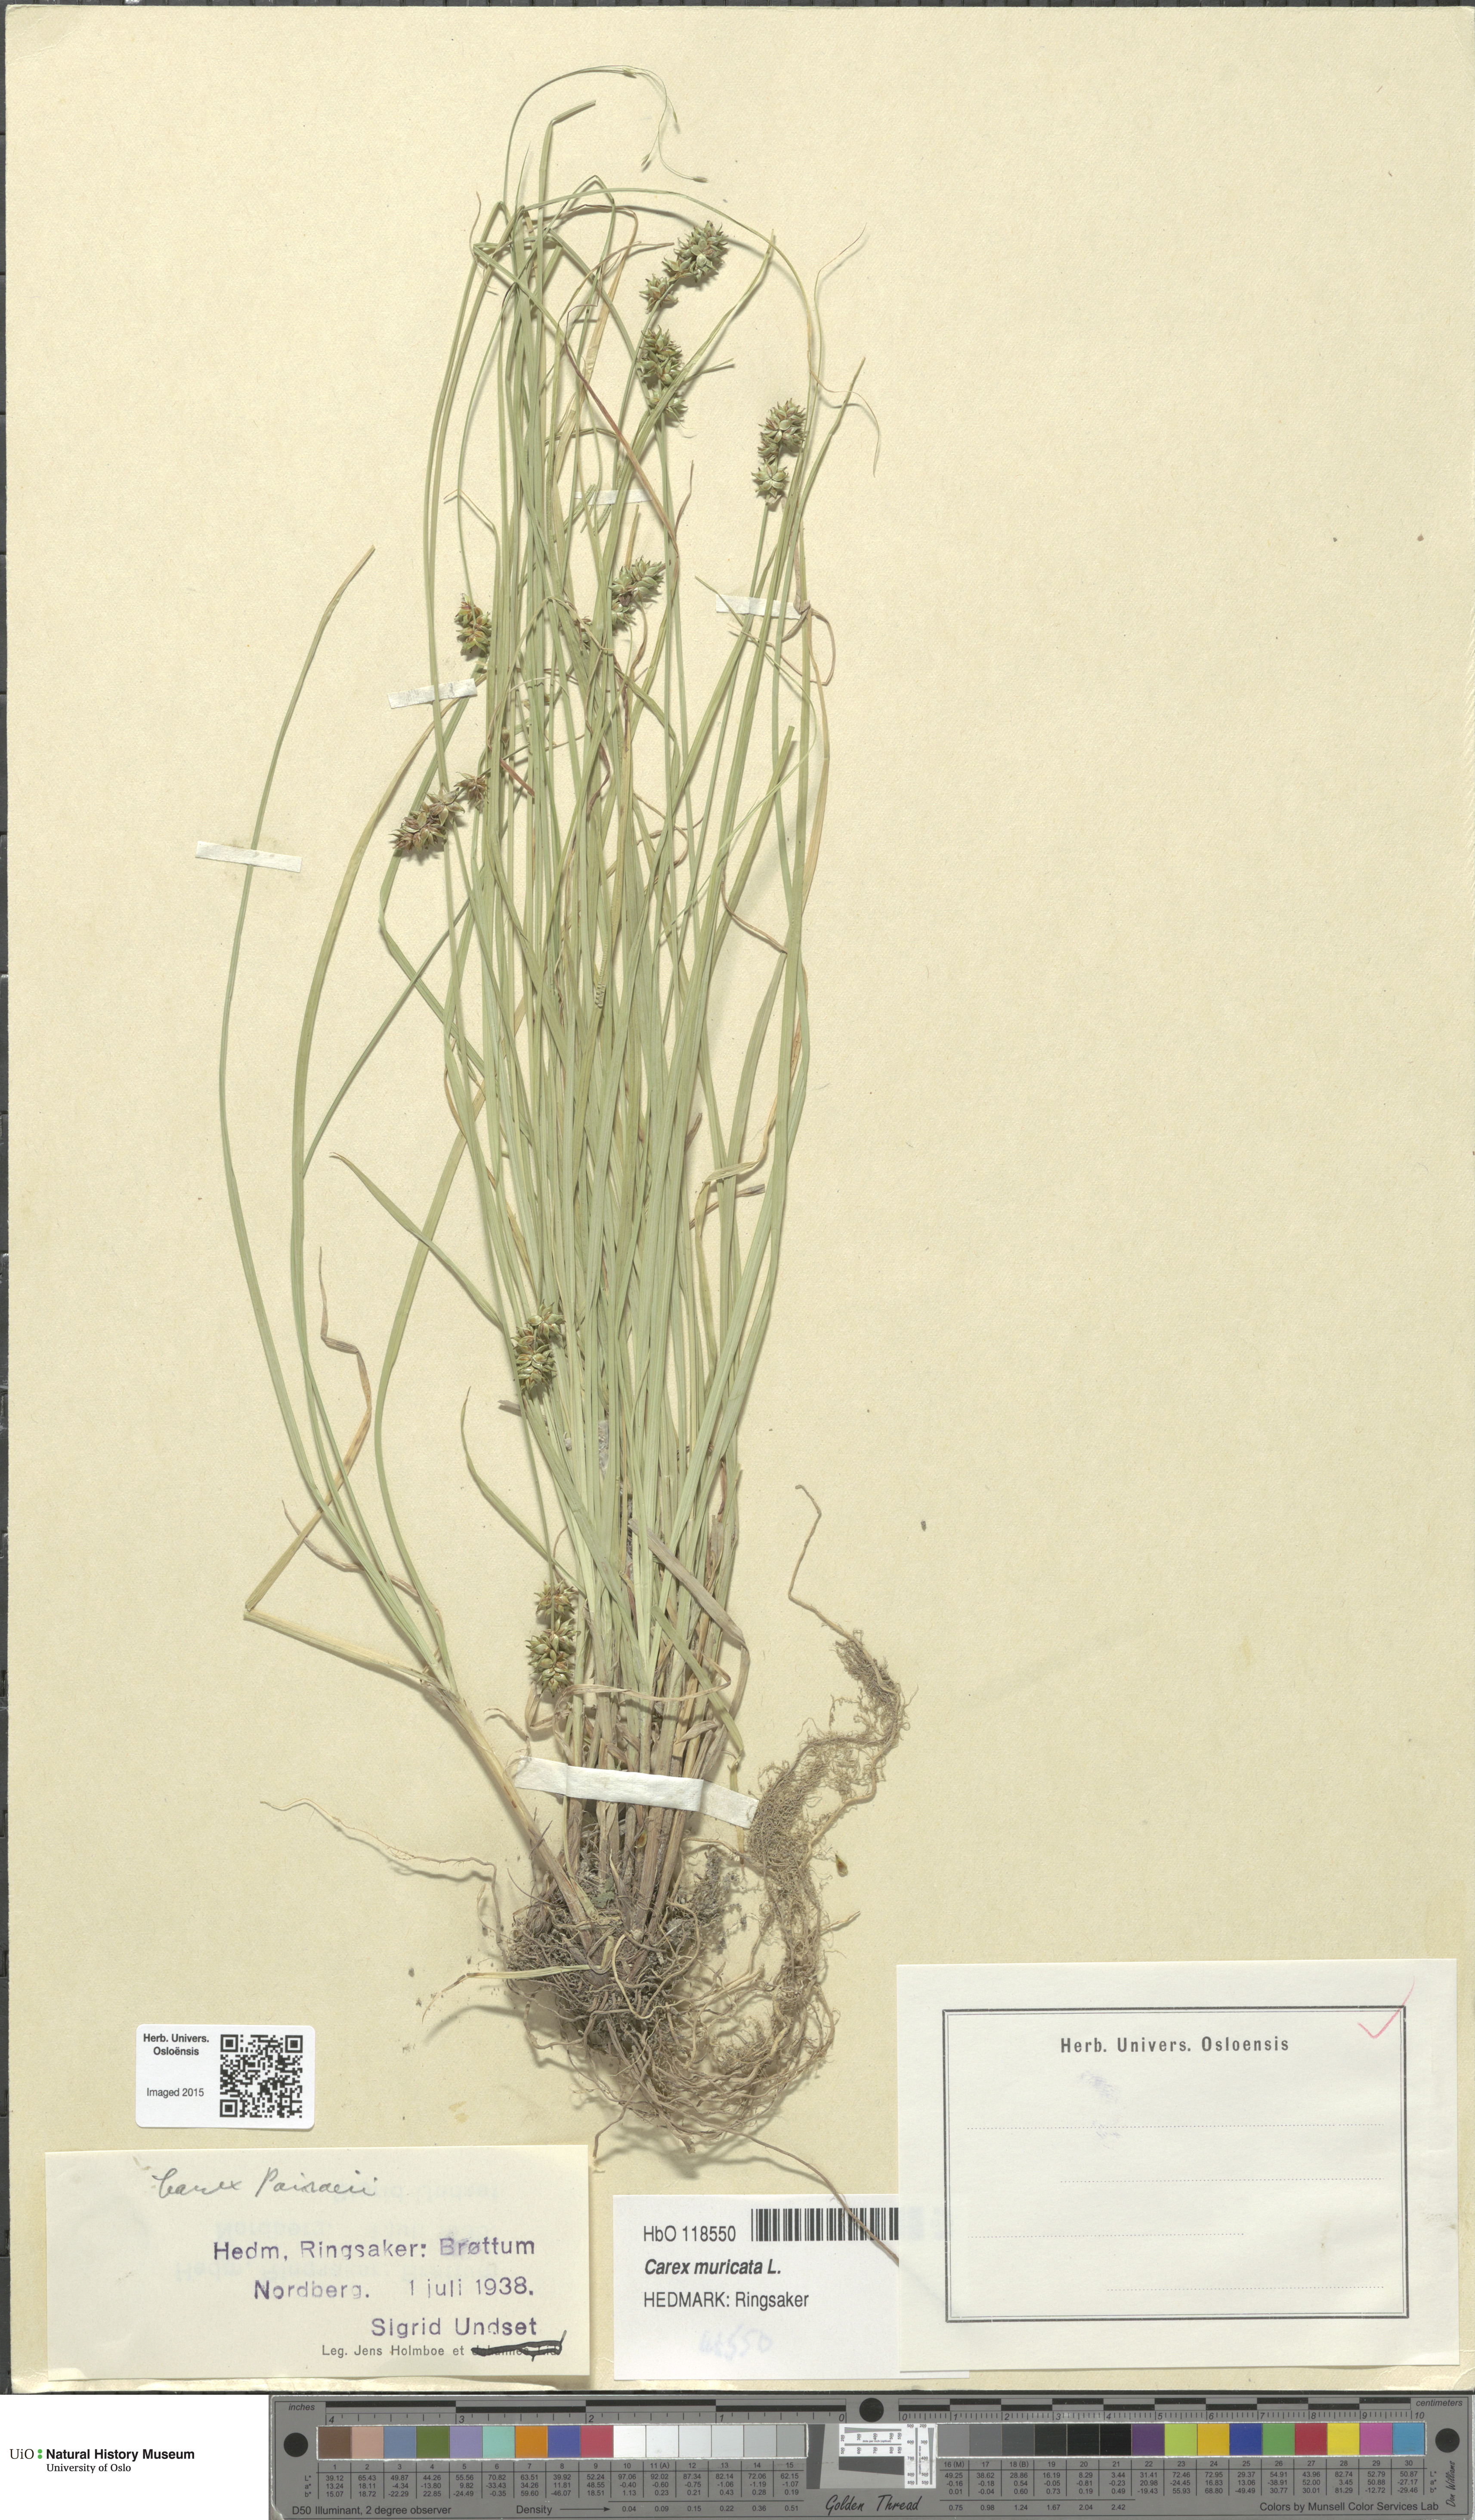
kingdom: Plantae
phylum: Tracheophyta
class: Liliopsida
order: Poales
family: Cyperaceae
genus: Carex
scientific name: Carex pairae
